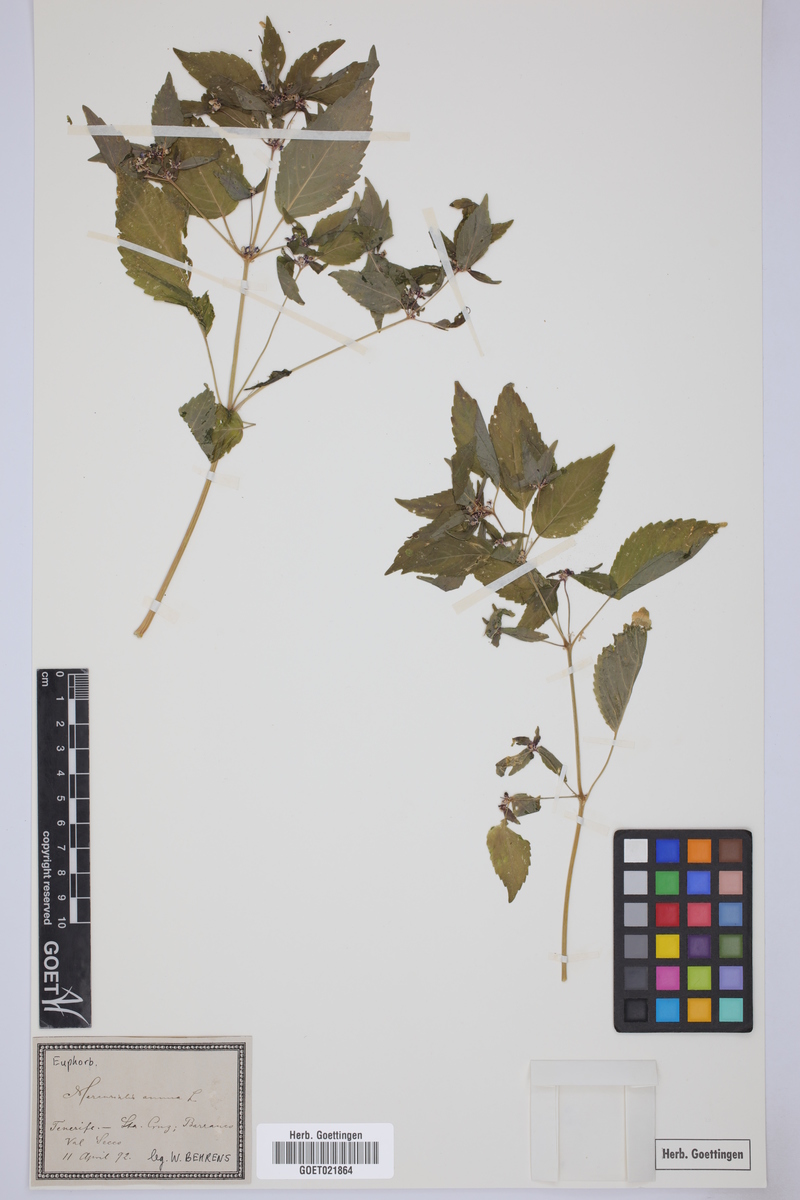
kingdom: Plantae
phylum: Tracheophyta
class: Magnoliopsida
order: Malpighiales
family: Euphorbiaceae
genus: Mercurialis
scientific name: Mercurialis annua
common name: Annual mercury
